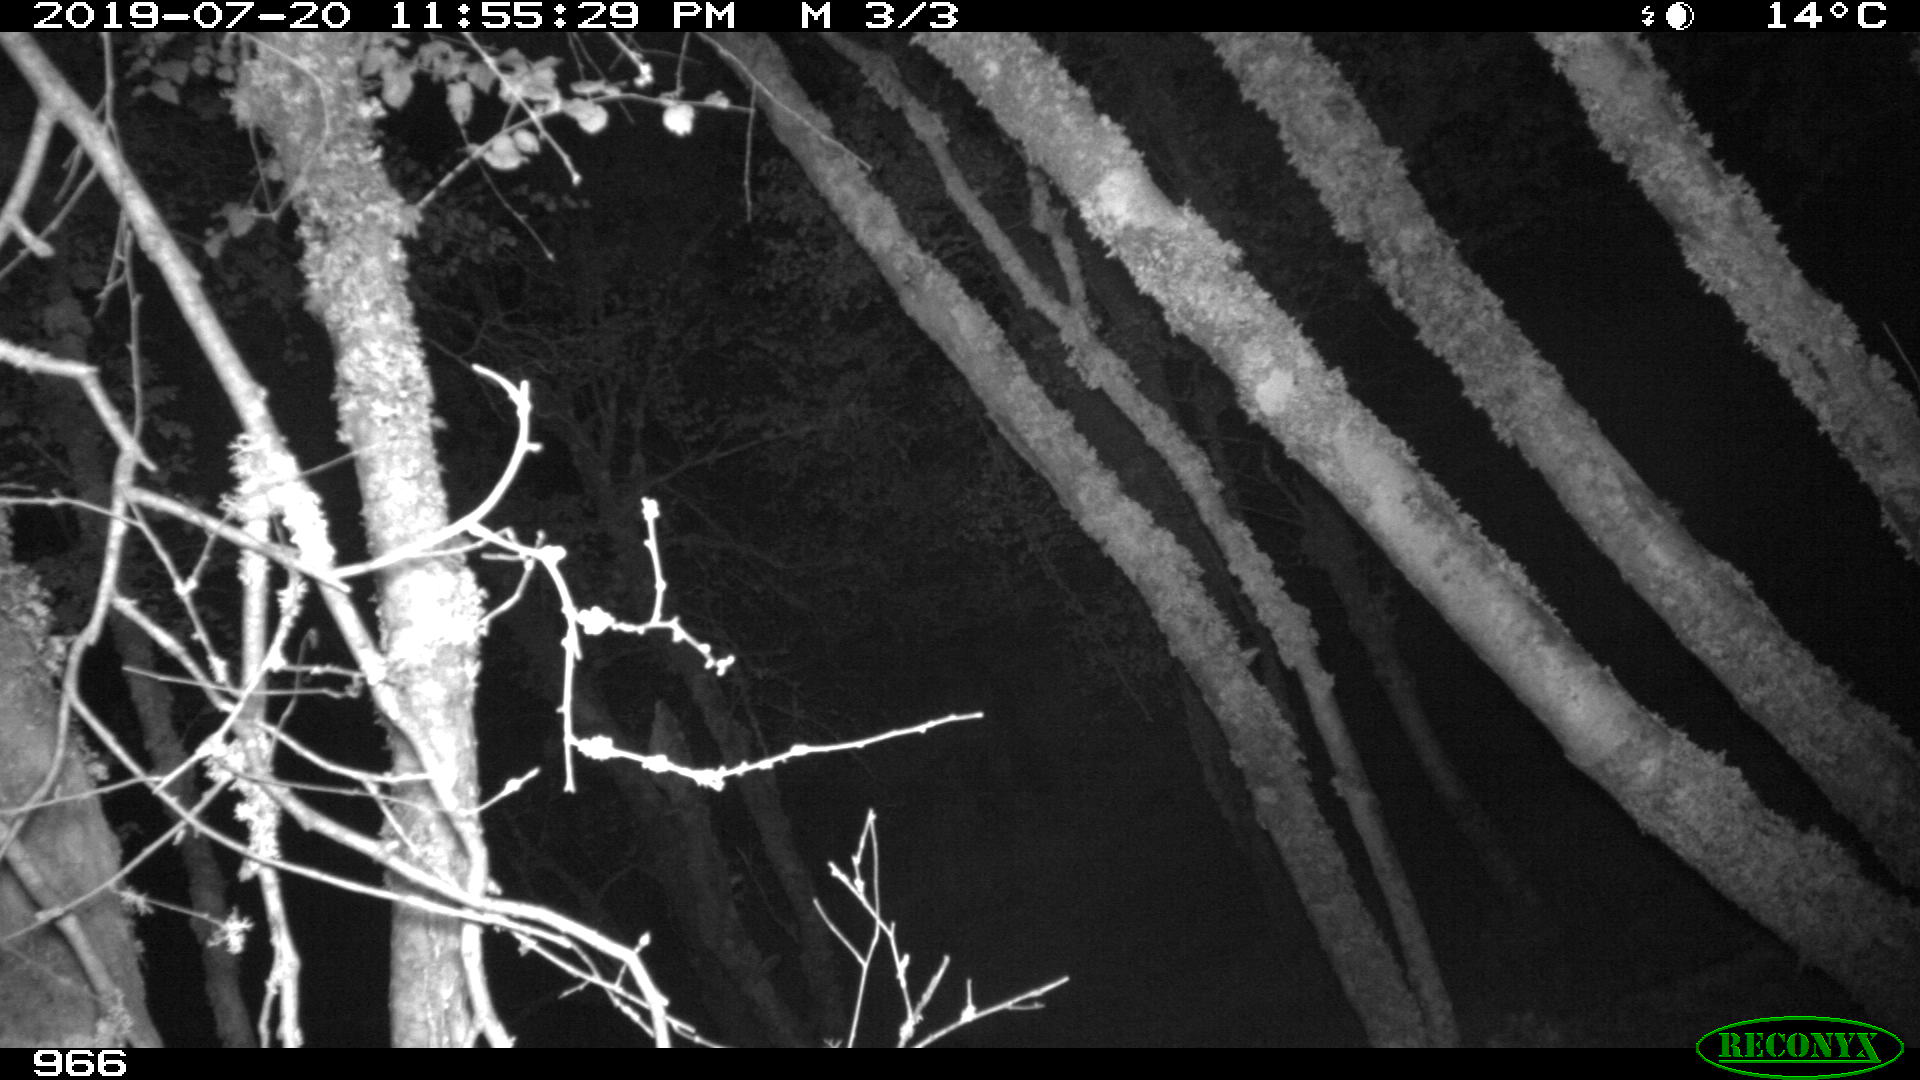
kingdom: Animalia
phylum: Chordata
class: Mammalia
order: Artiodactyla
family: Suidae
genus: Sus
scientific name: Sus scrofa
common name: Wild boar
